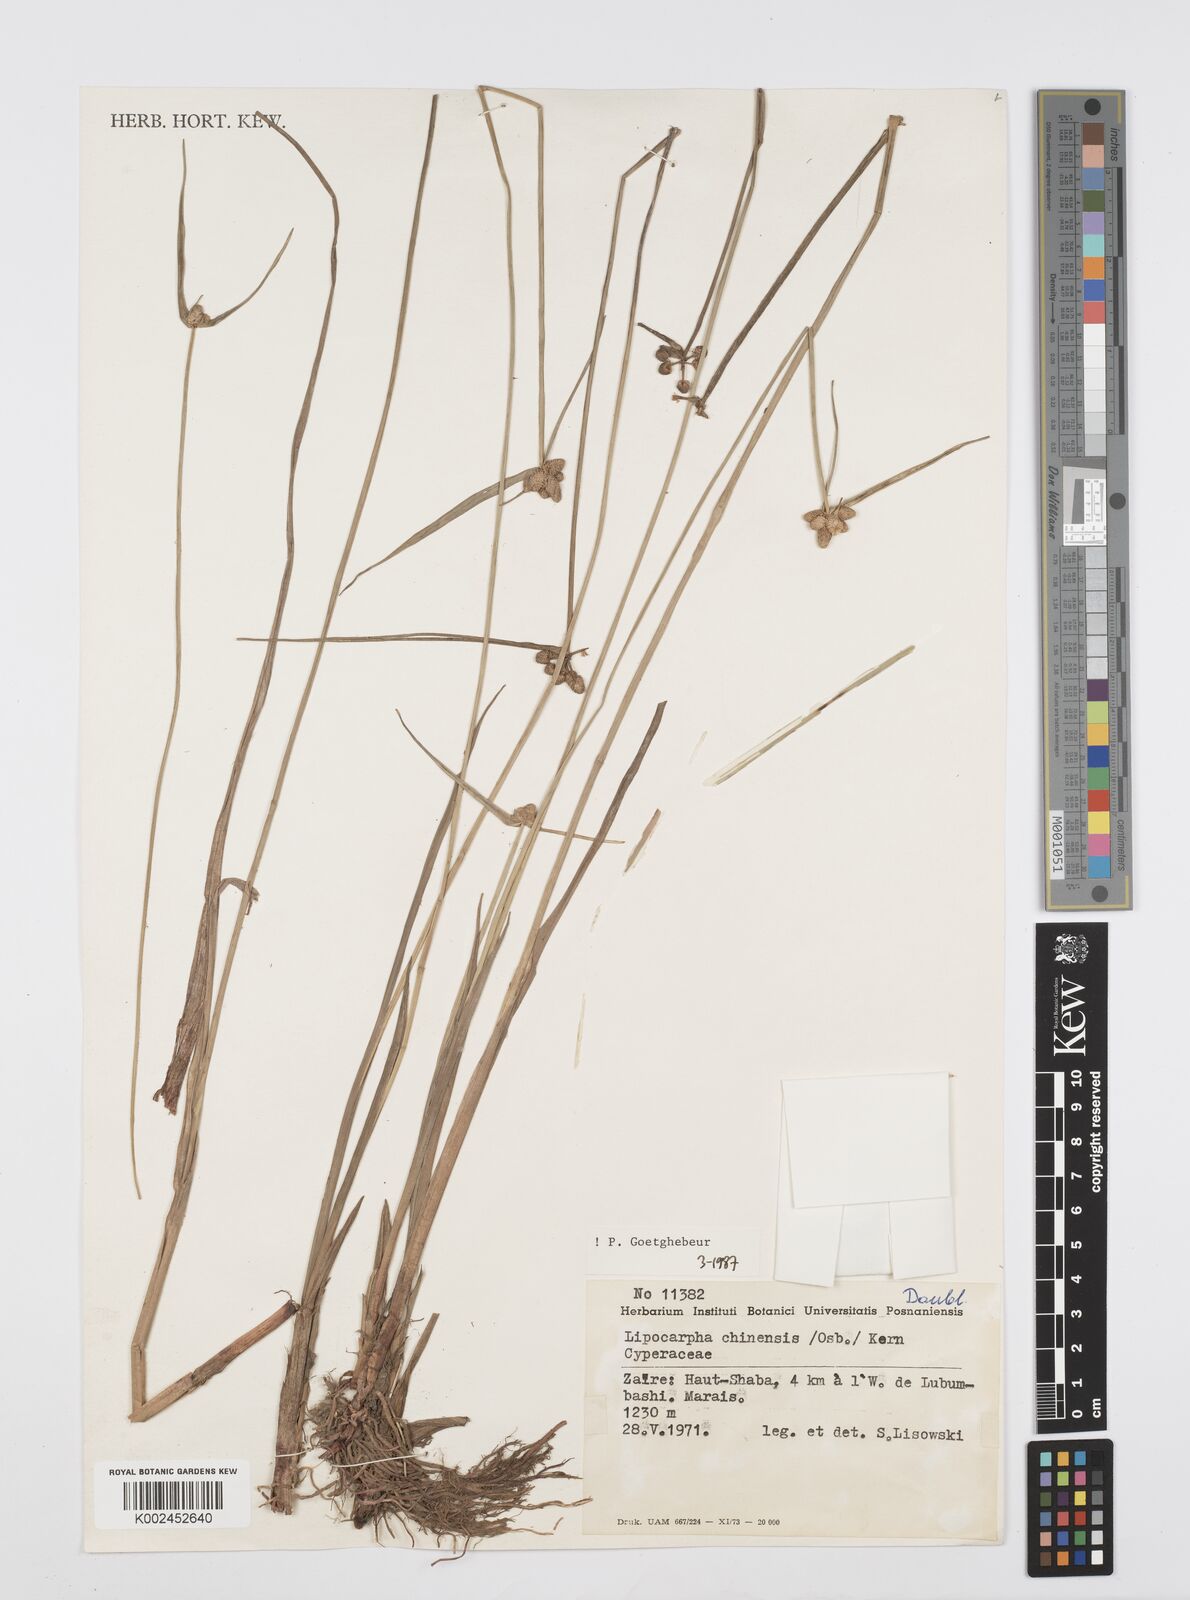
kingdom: Plantae
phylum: Tracheophyta
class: Liliopsida
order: Poales
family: Cyperaceae
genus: Cyperus
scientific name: Cyperus albescens
